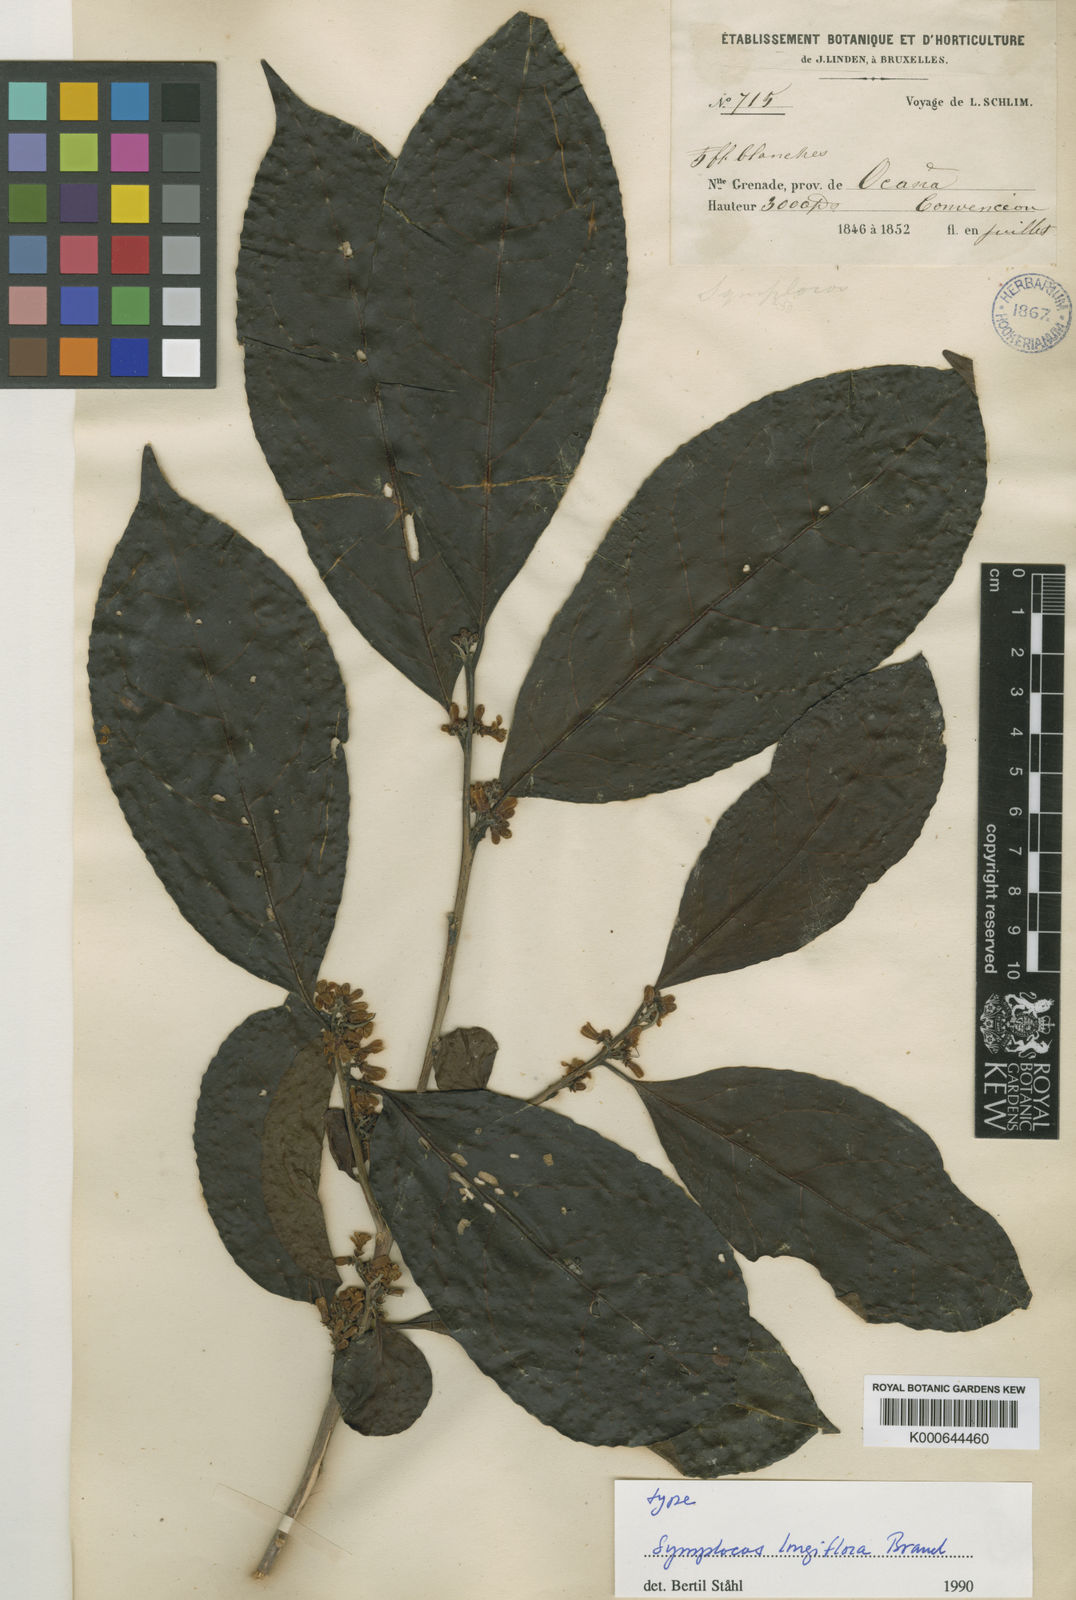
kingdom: Plantae
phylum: Tracheophyta
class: Magnoliopsida
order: Ericales
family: Symplocaceae
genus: Symplocos
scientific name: Symplocos
